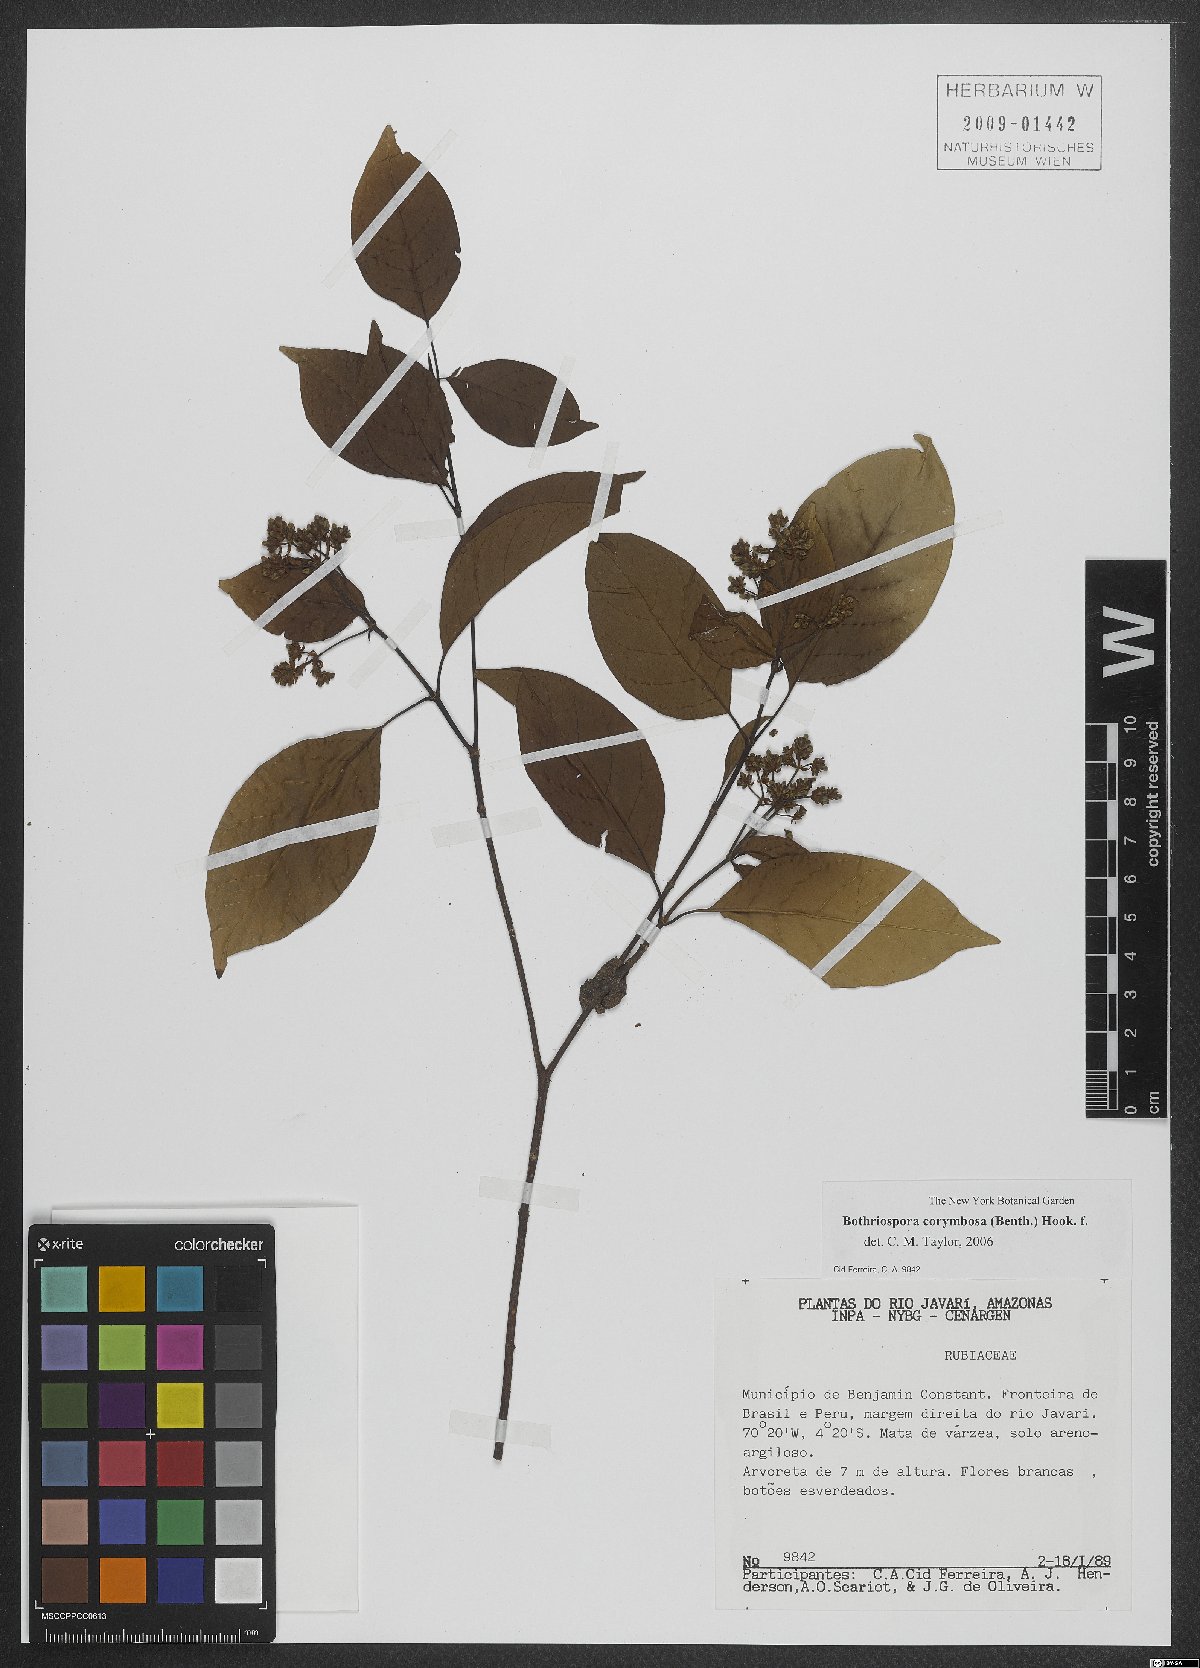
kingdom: Plantae
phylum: Tracheophyta
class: Magnoliopsida
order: Gentianales
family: Rubiaceae
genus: Bothriospora
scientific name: Bothriospora corymbosa
